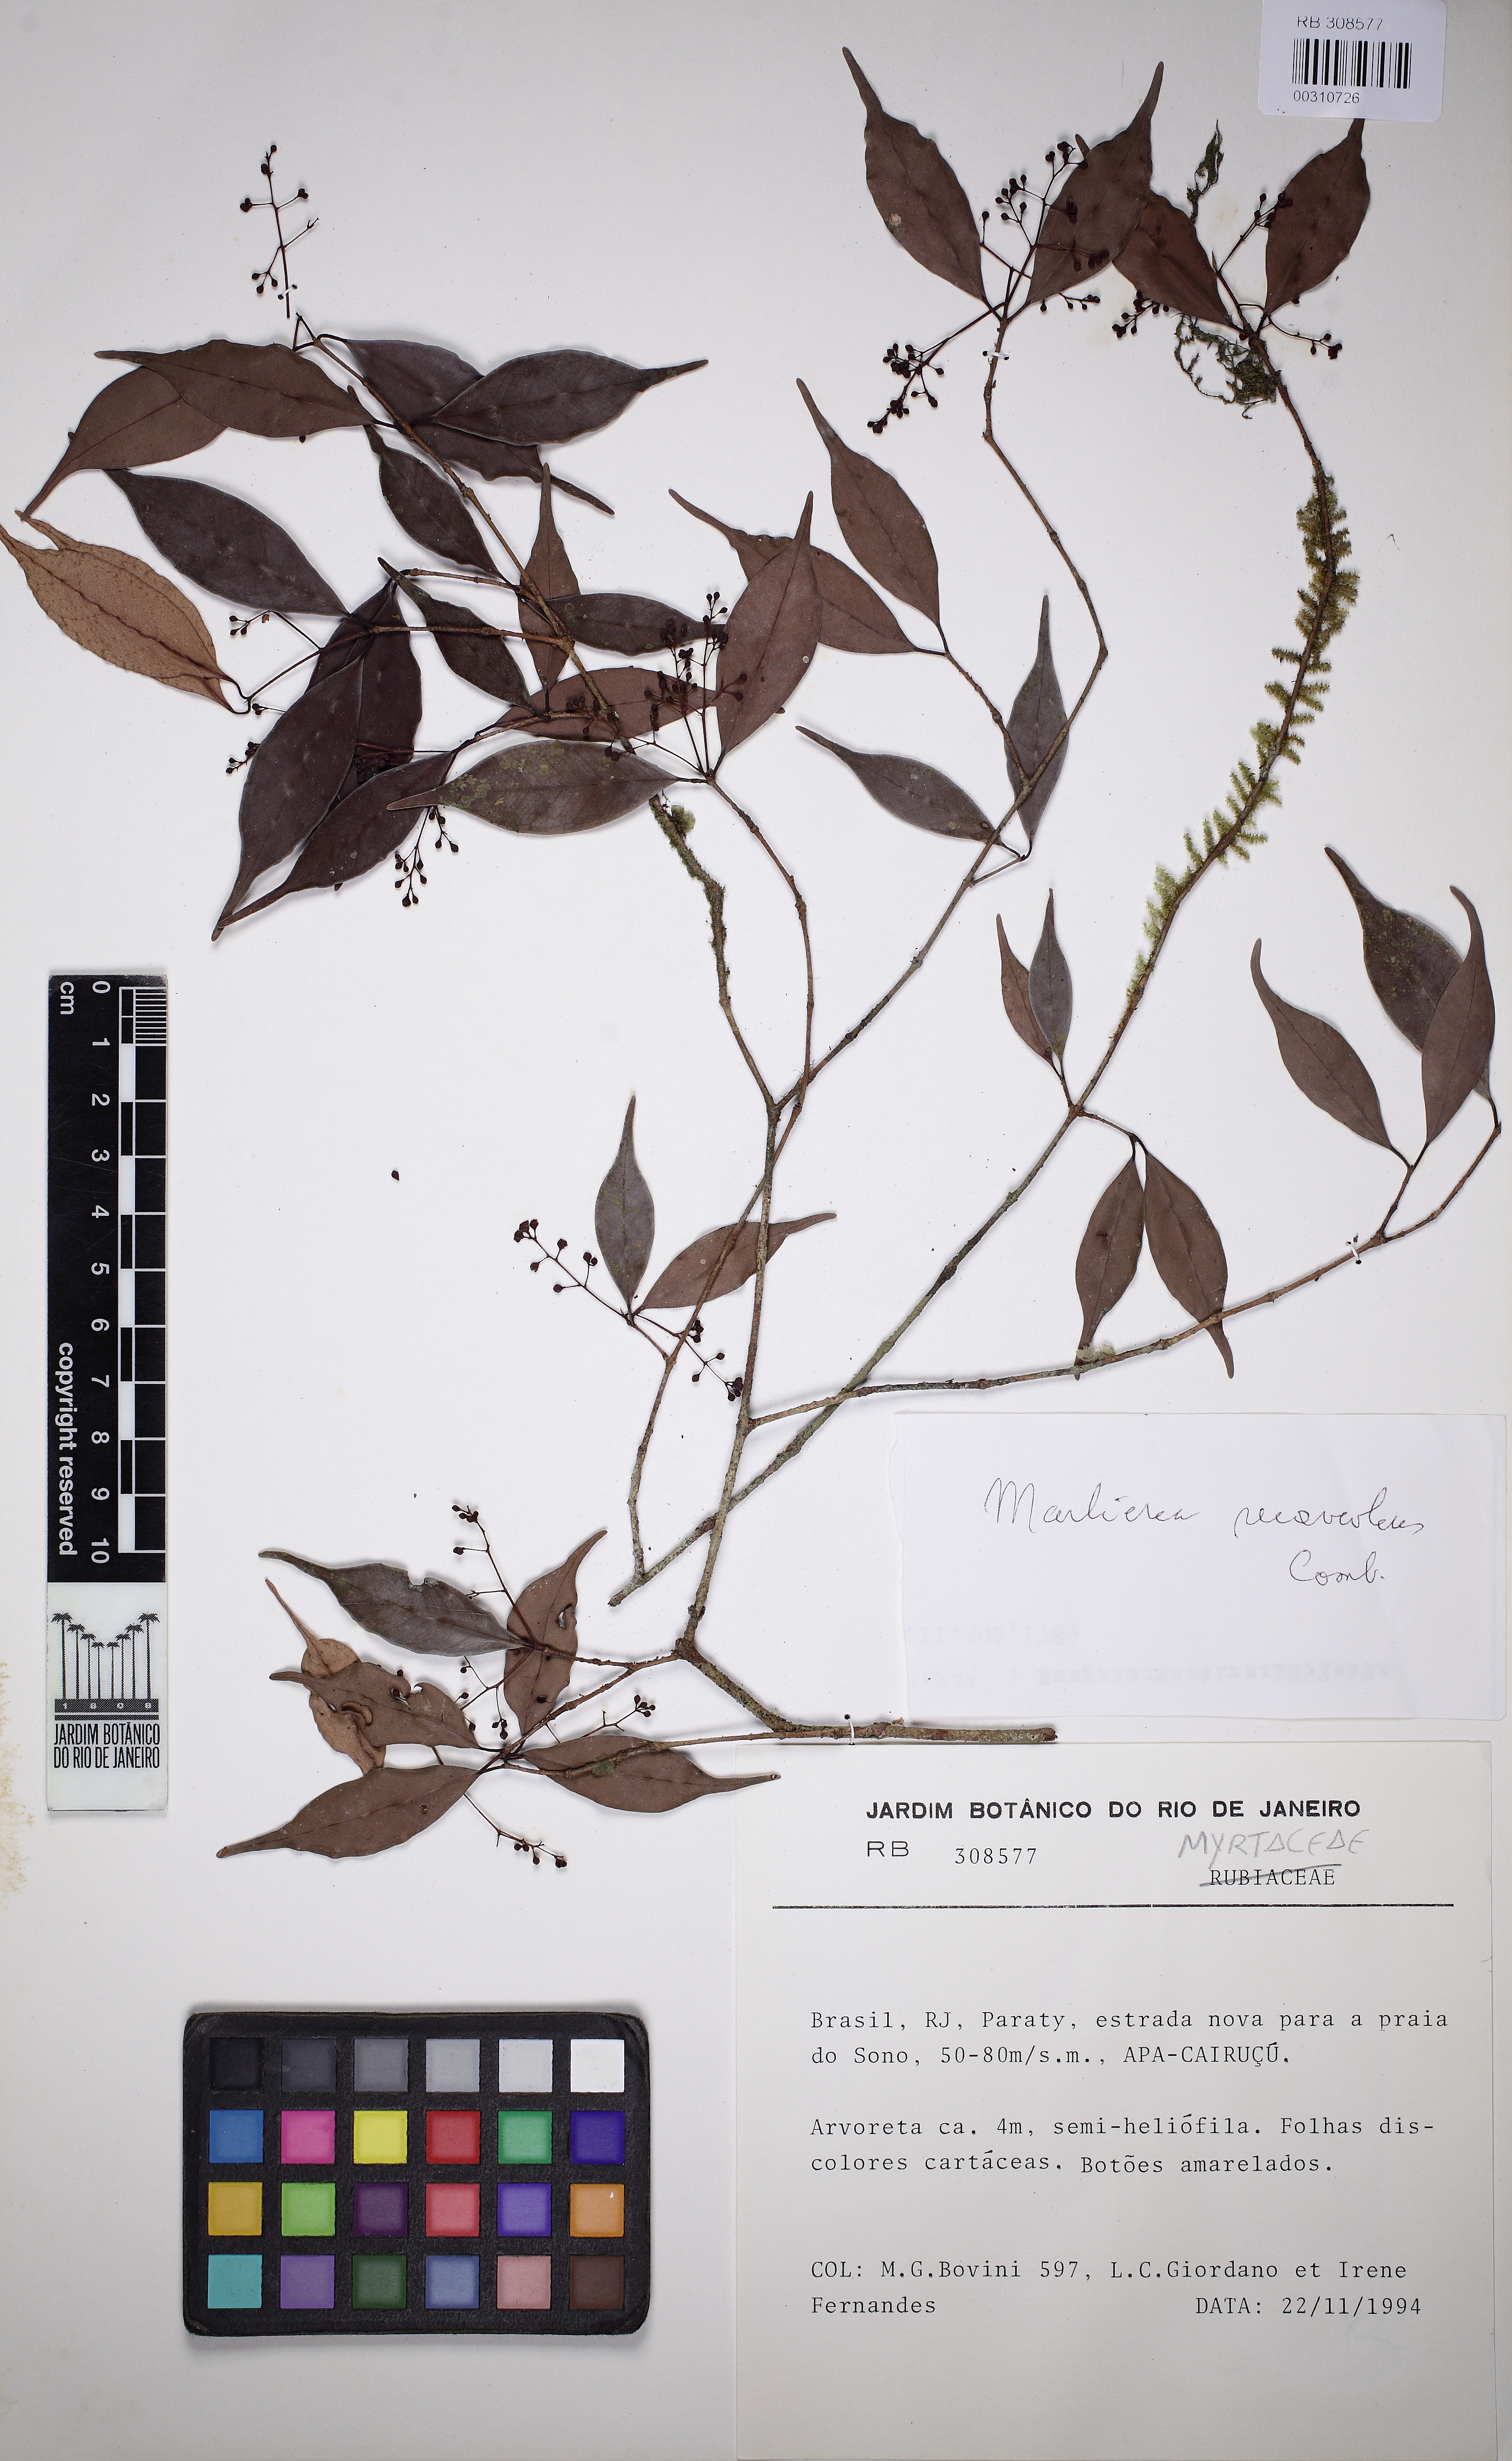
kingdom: Plantae
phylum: Tracheophyta
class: Magnoliopsida
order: Myrtales
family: Myrtaceae
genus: Myrcia
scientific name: Myrcia neosuaveolens
